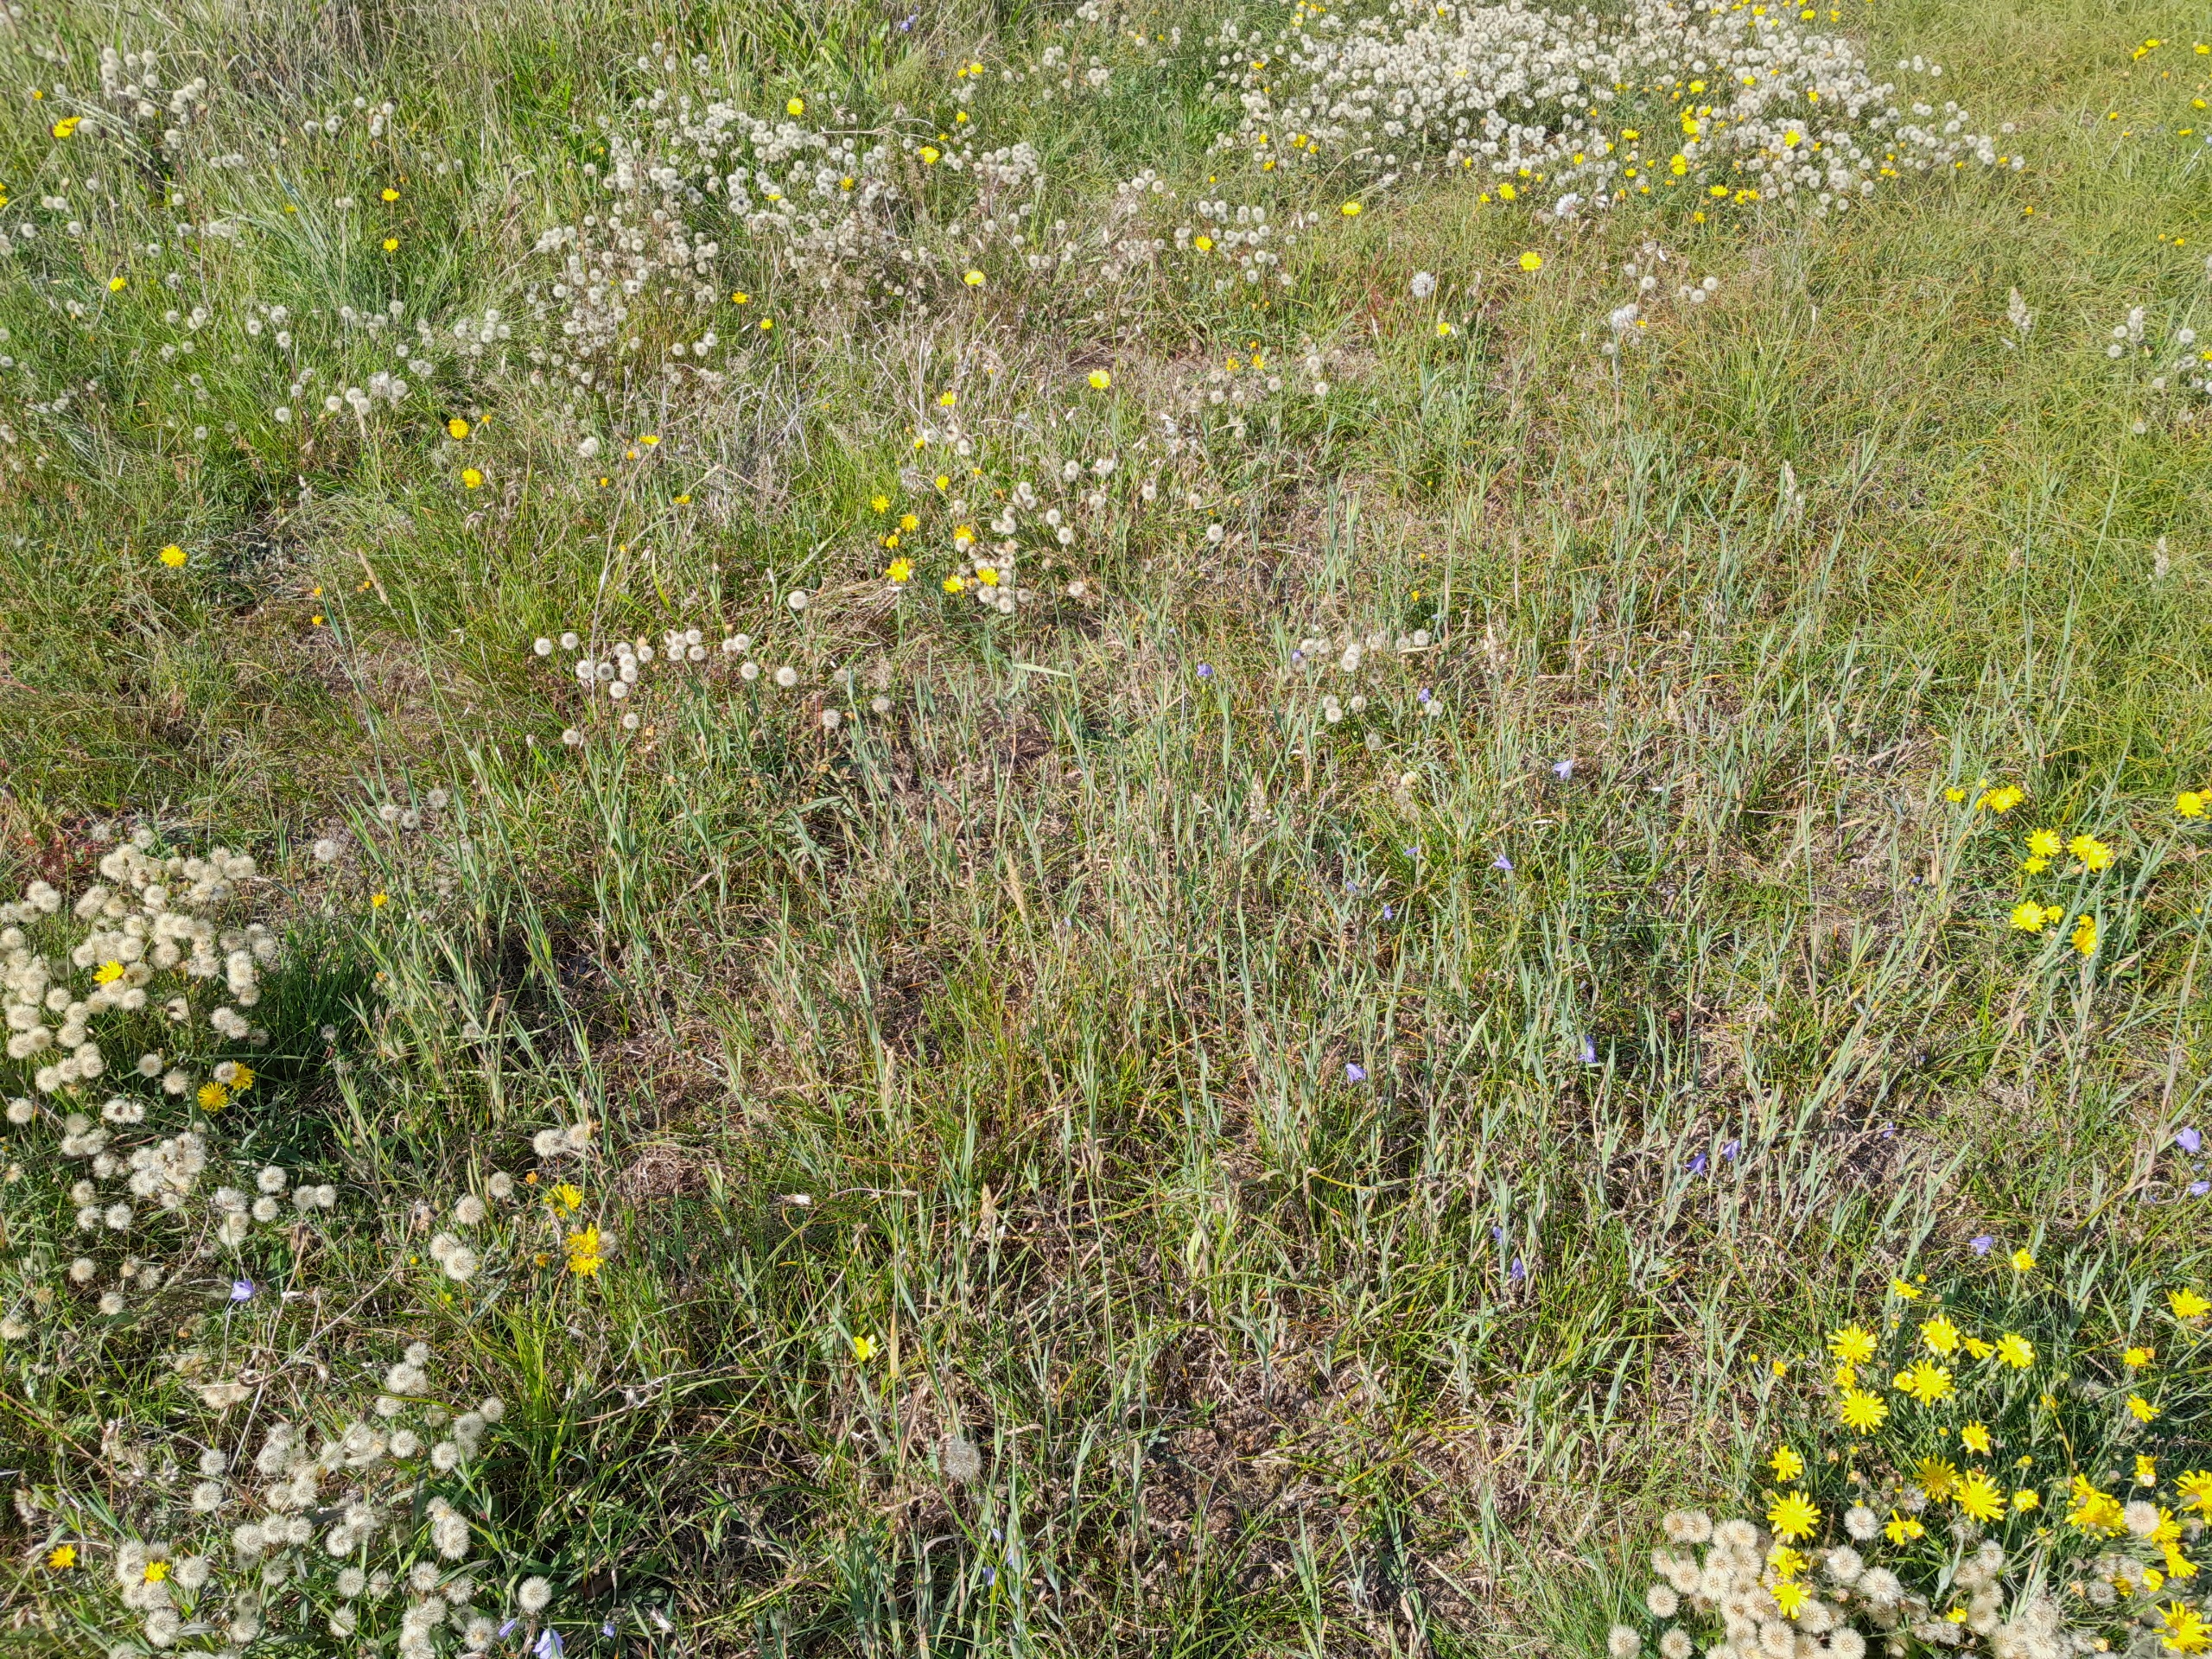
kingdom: Plantae
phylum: Tracheophyta
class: Liliopsida
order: Poales
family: Poaceae
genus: Holcus
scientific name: Holcus mollis
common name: Krybende hestegræs
